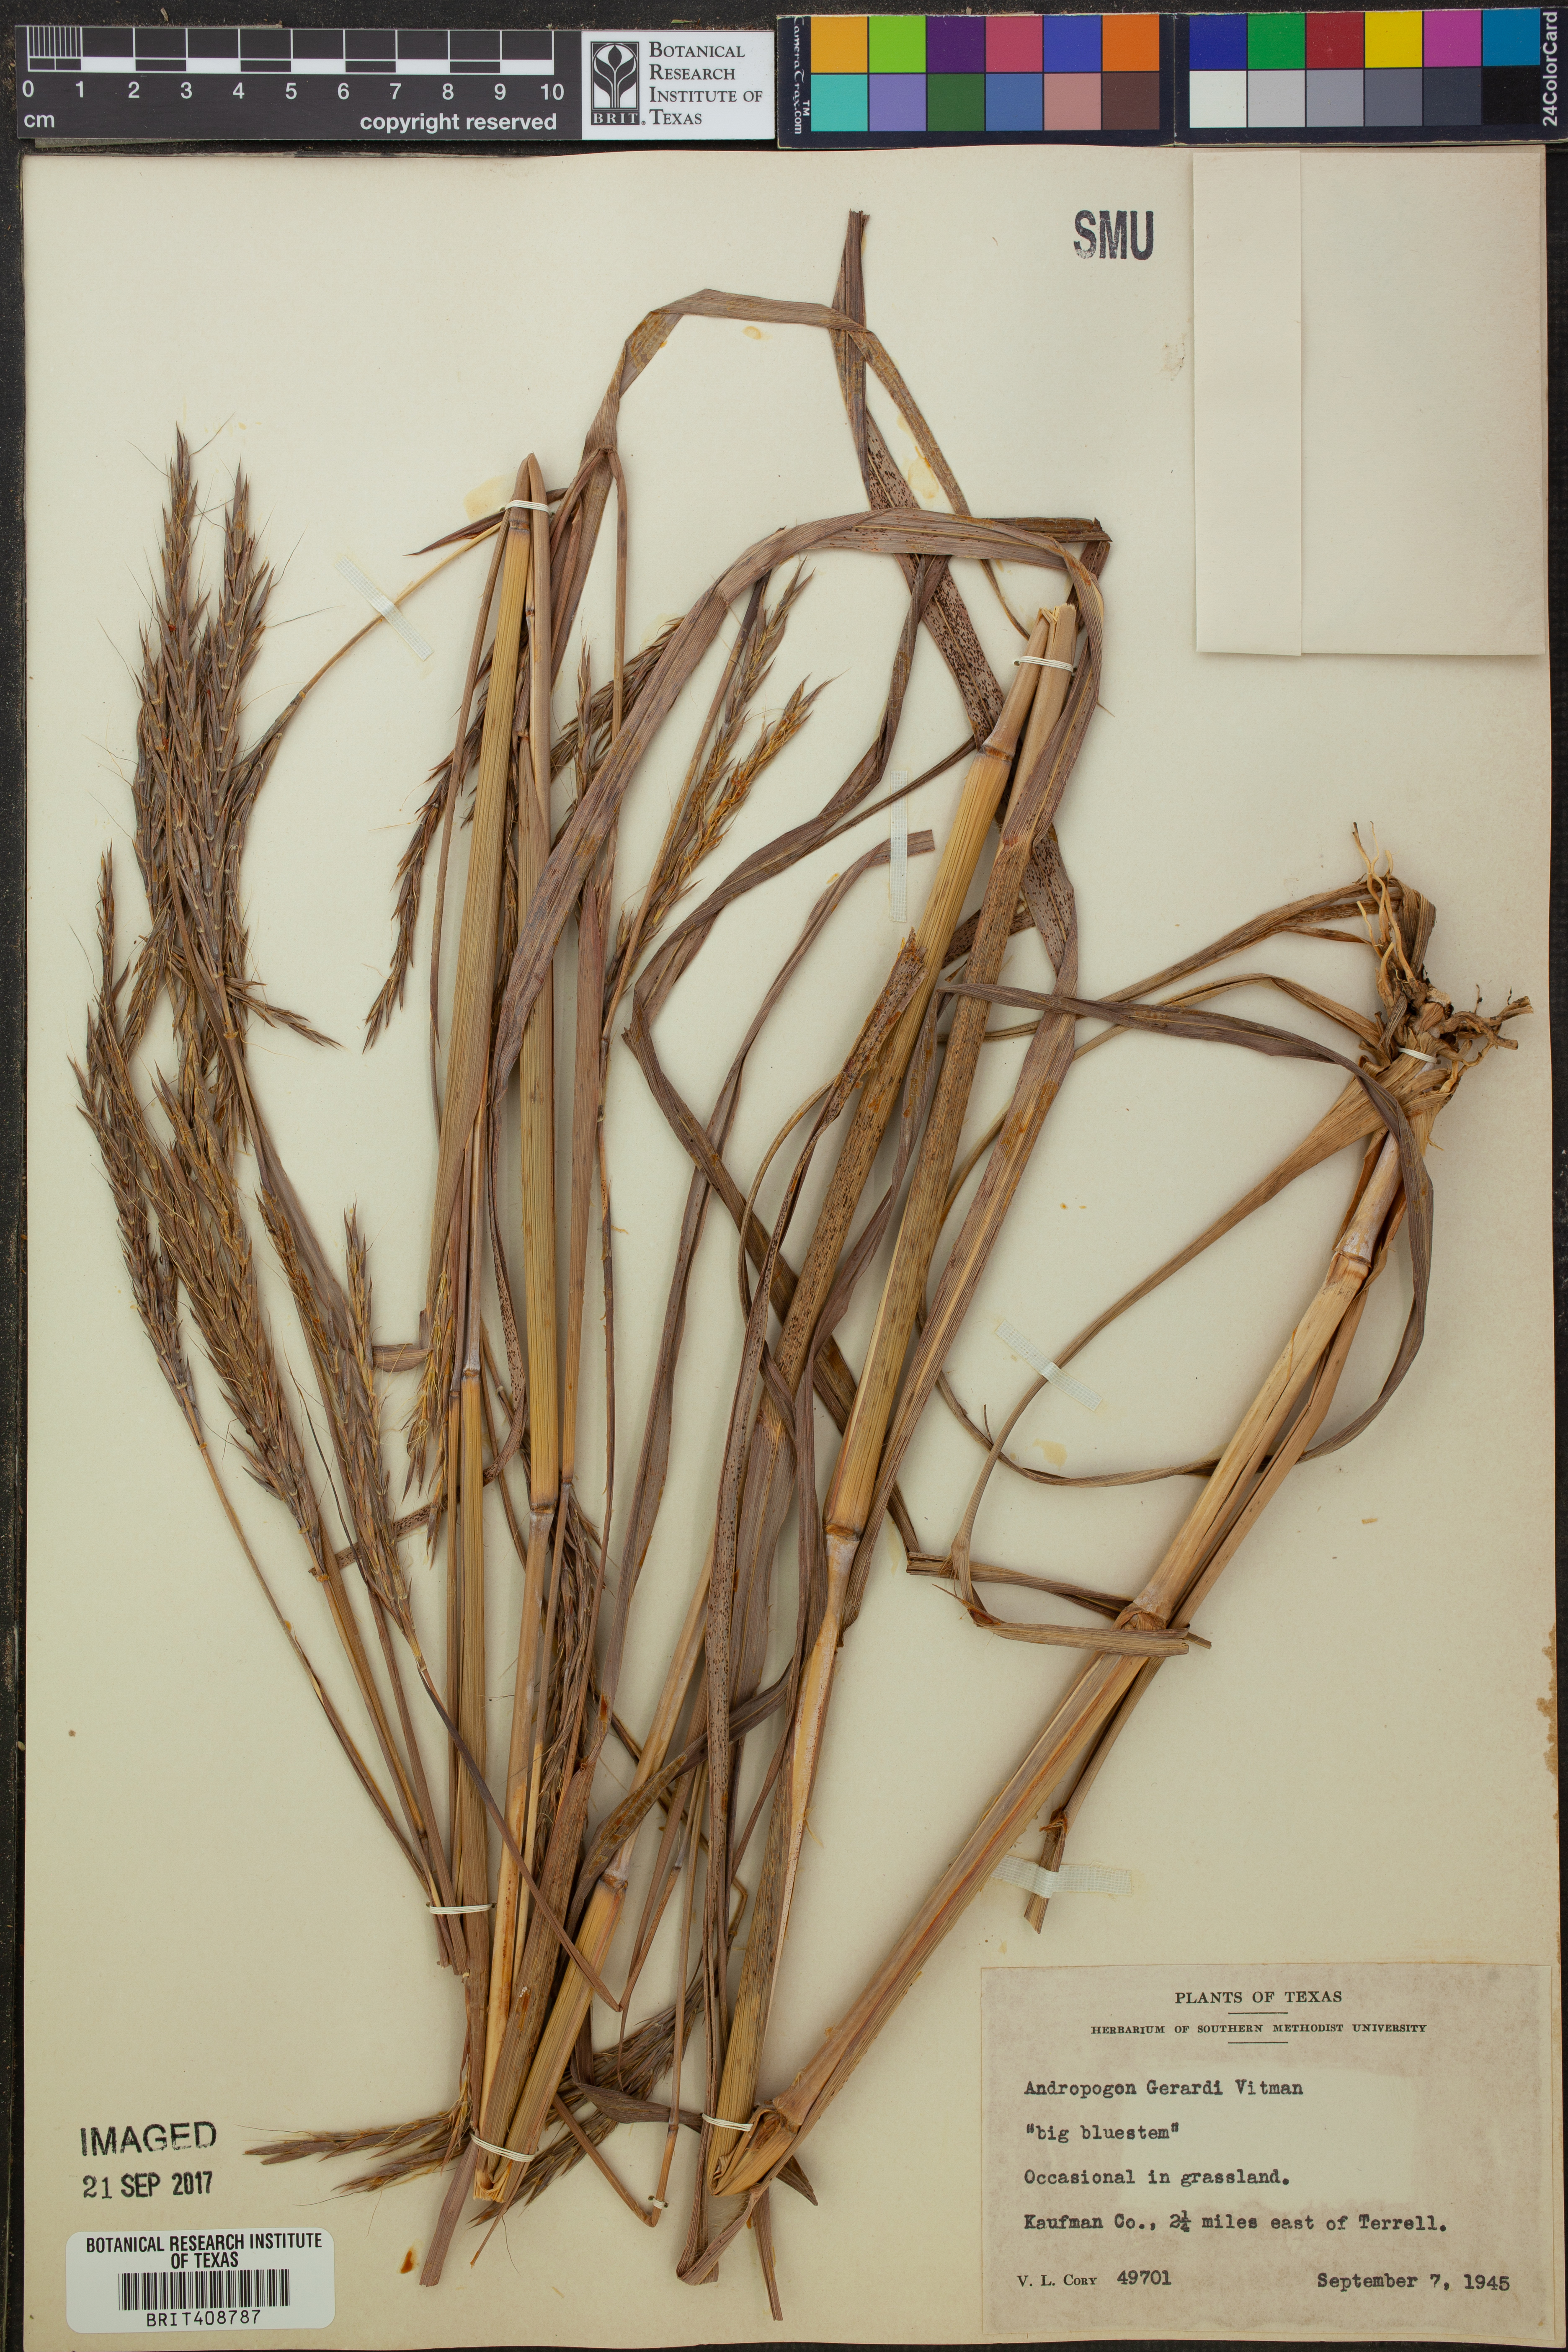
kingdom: Plantae
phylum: Tracheophyta
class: Liliopsida
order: Poales
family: Poaceae
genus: Andropogon
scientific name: Andropogon gerardi
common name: Big bluestem
